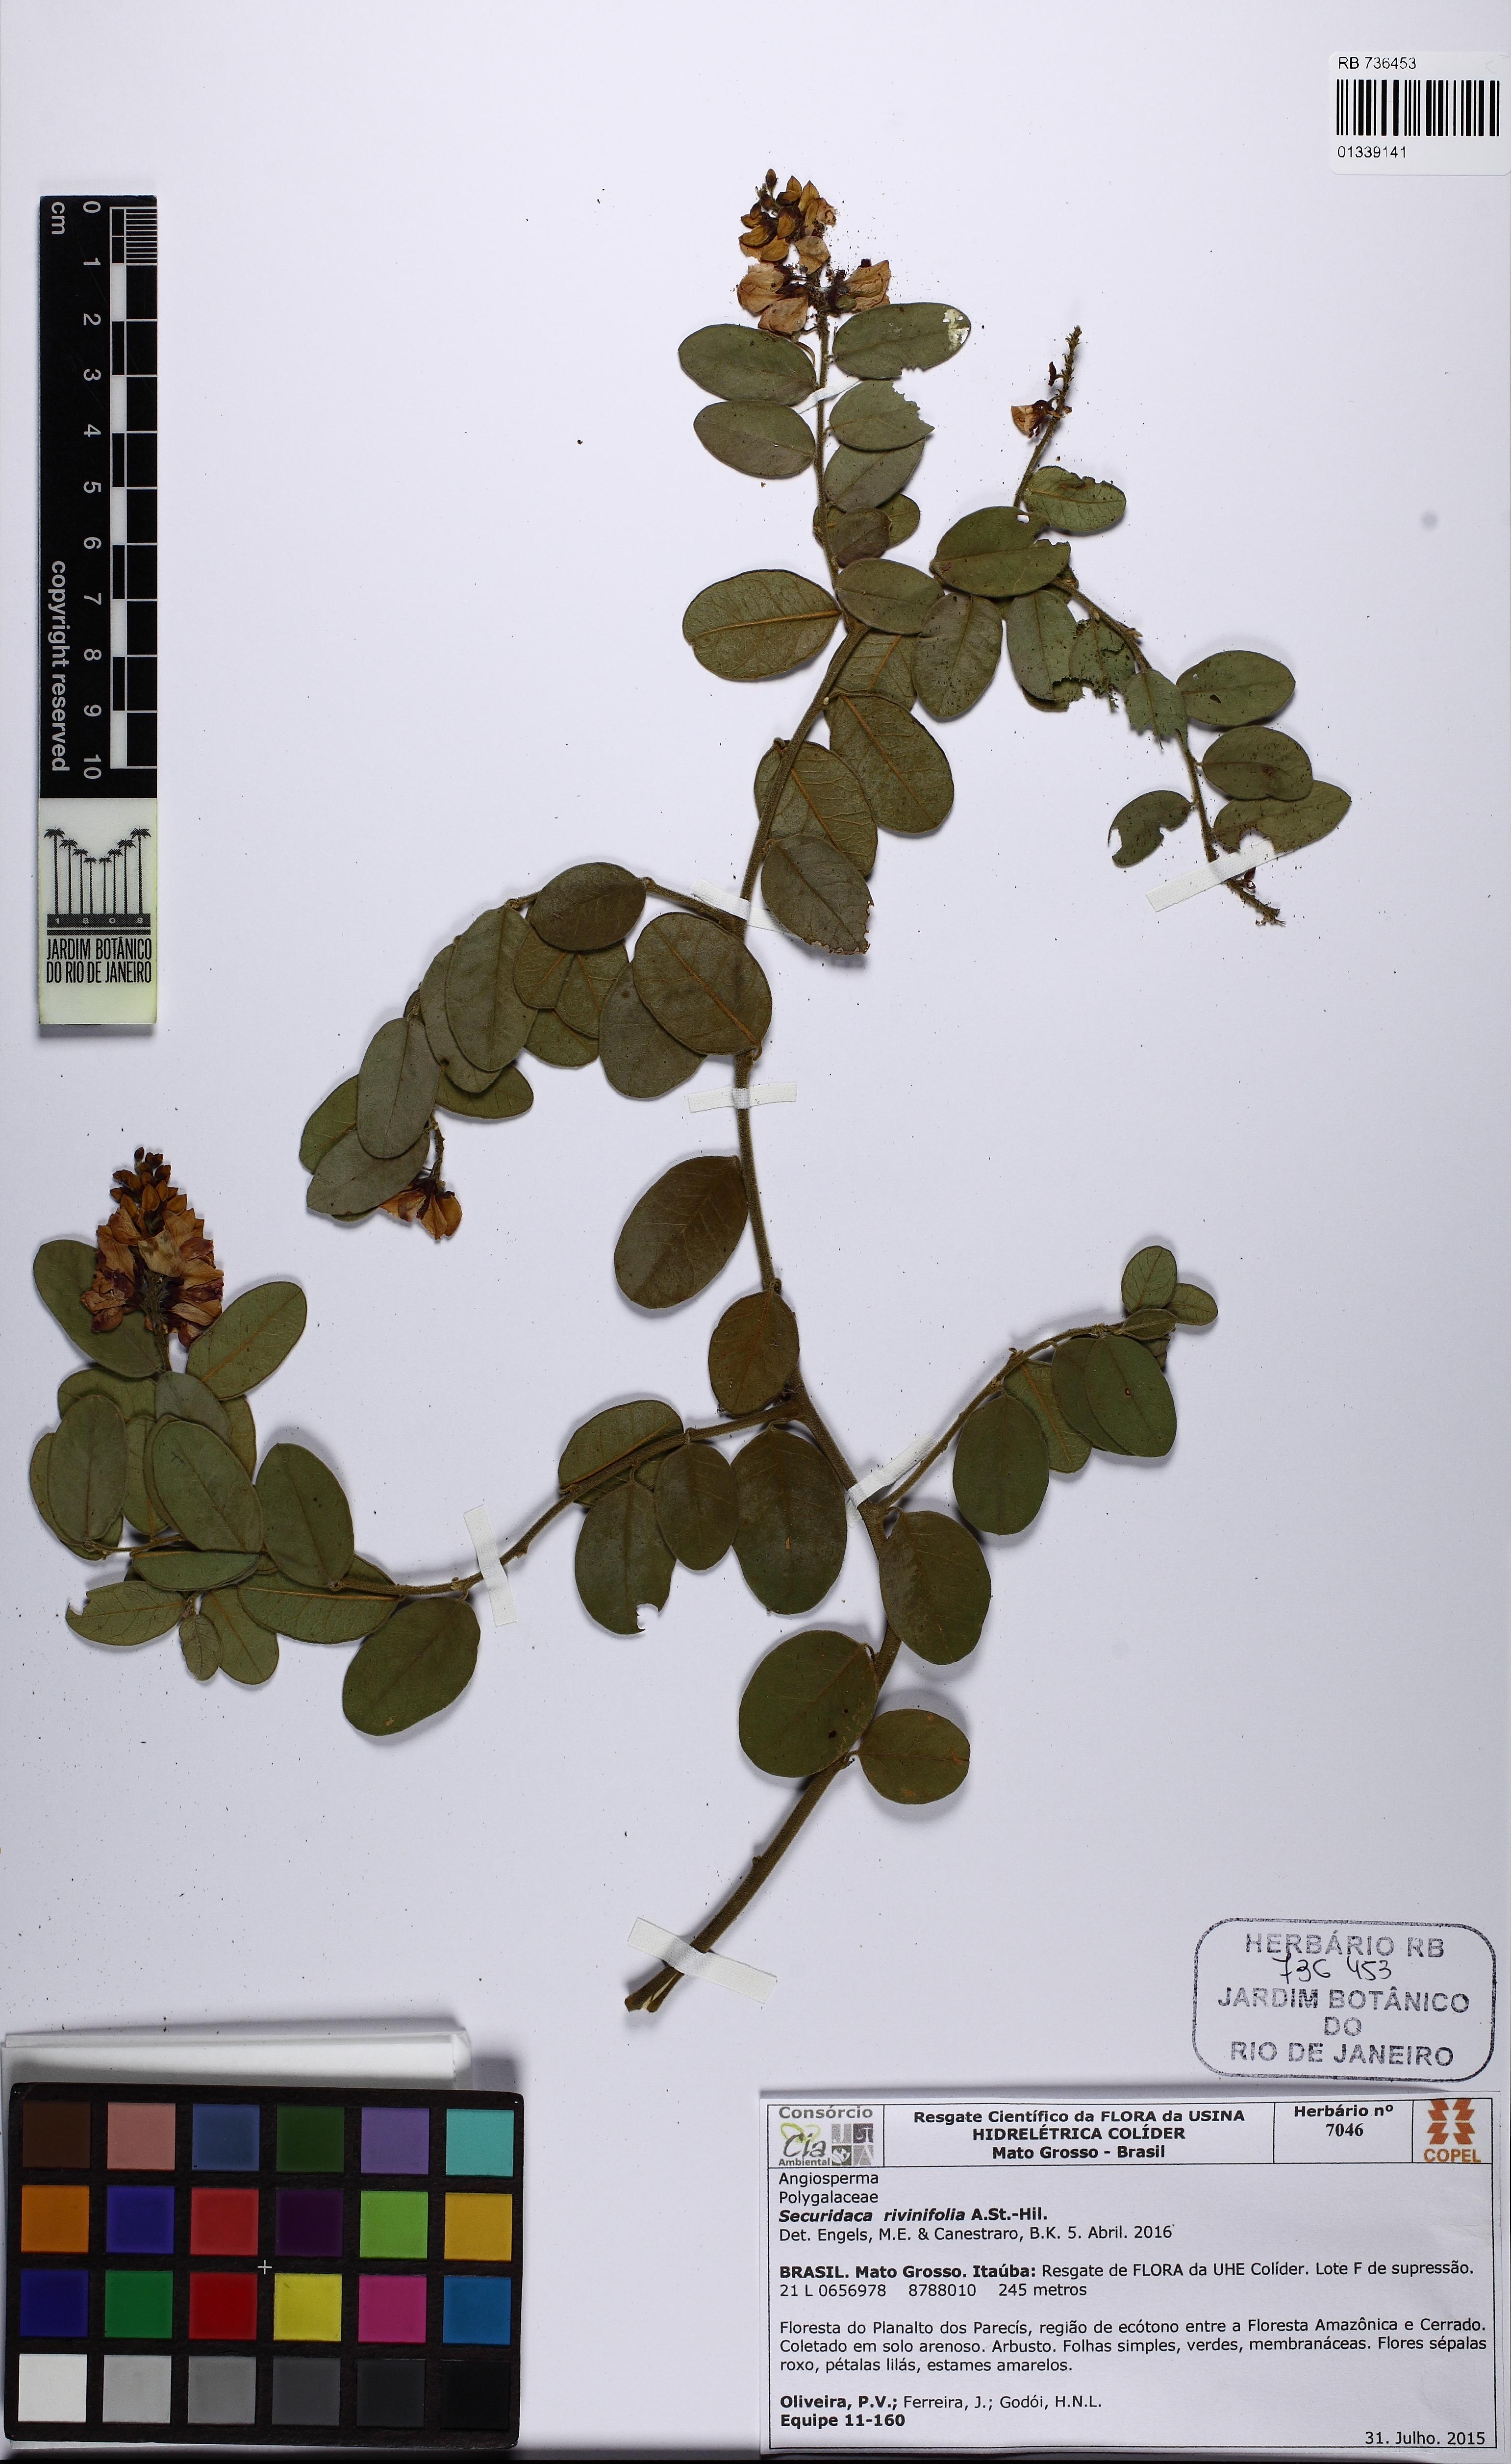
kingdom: Plantae
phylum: Tracheophyta
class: Magnoliopsida
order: Fabales
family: Polygalaceae
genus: Securidaca
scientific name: Securidaca rivinifolia
